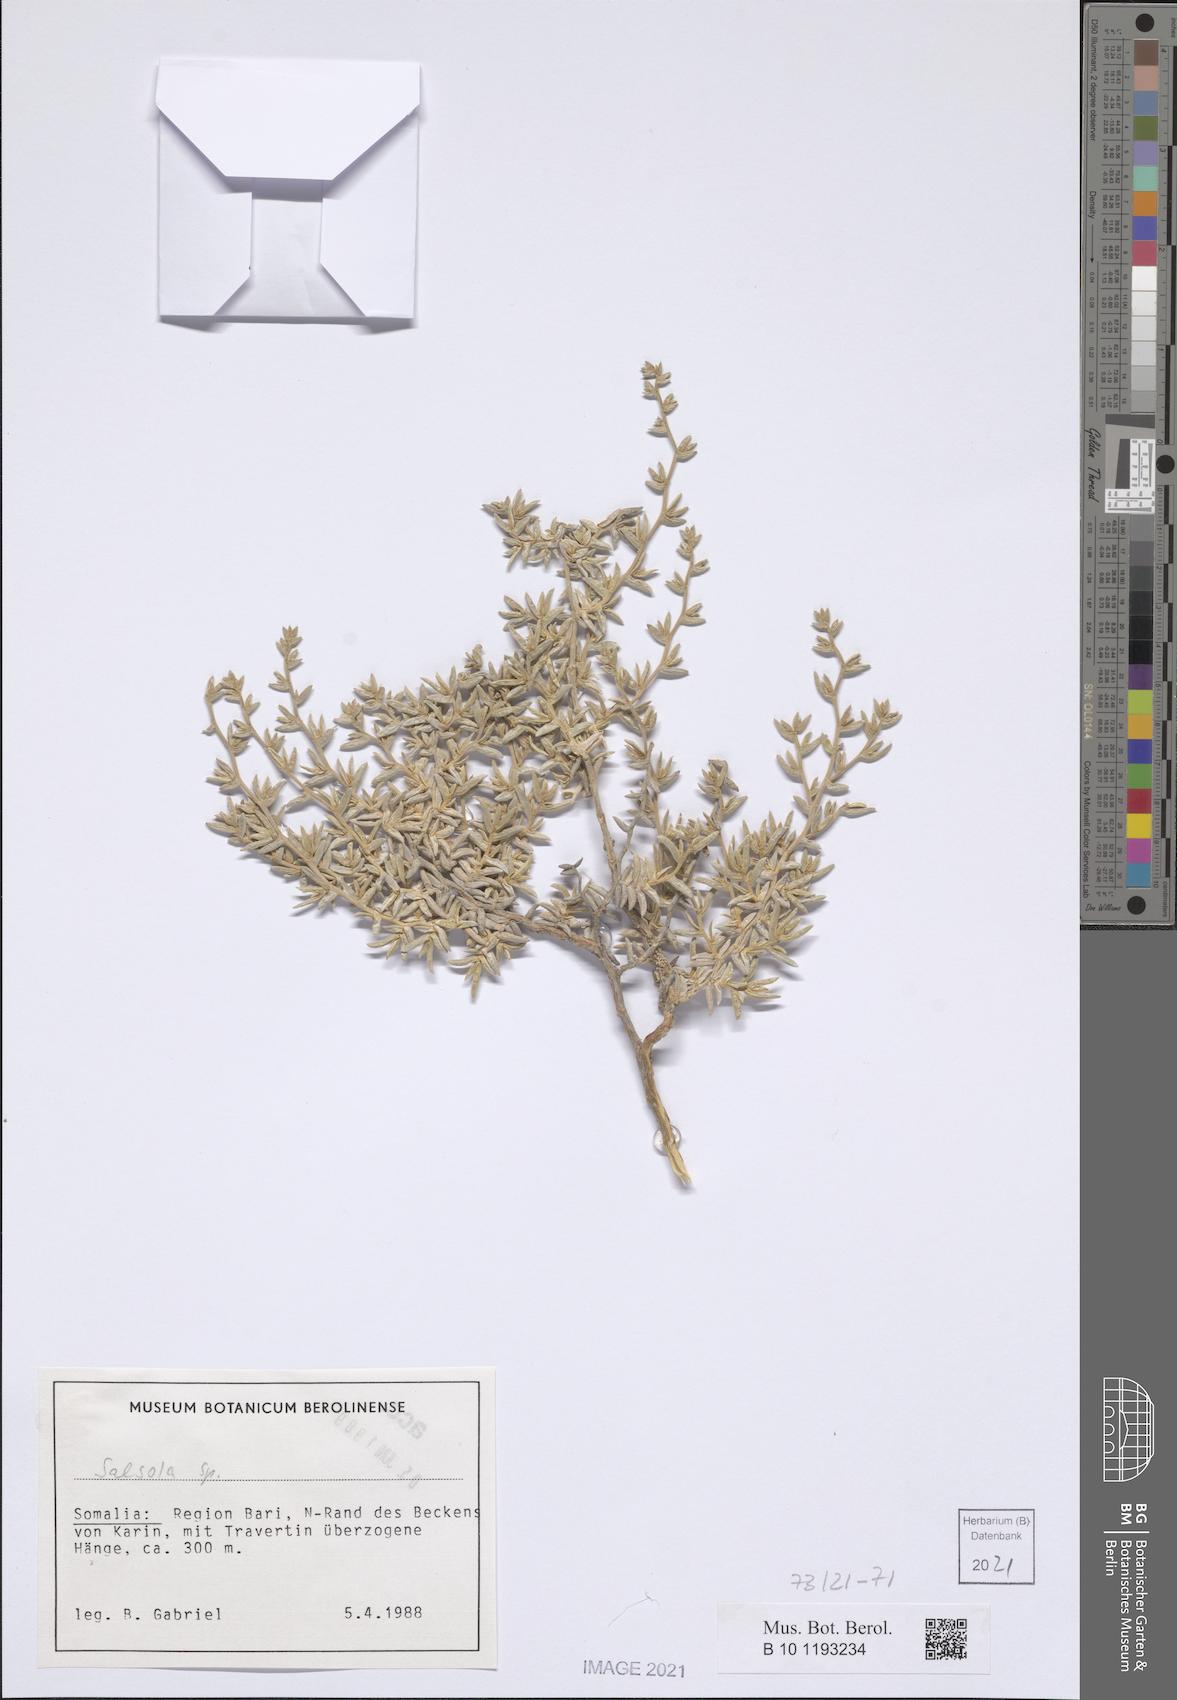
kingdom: Plantae
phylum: Tracheophyta
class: Magnoliopsida
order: Caryophyllales
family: Amaranthaceae
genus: Salsola
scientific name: Salsola
